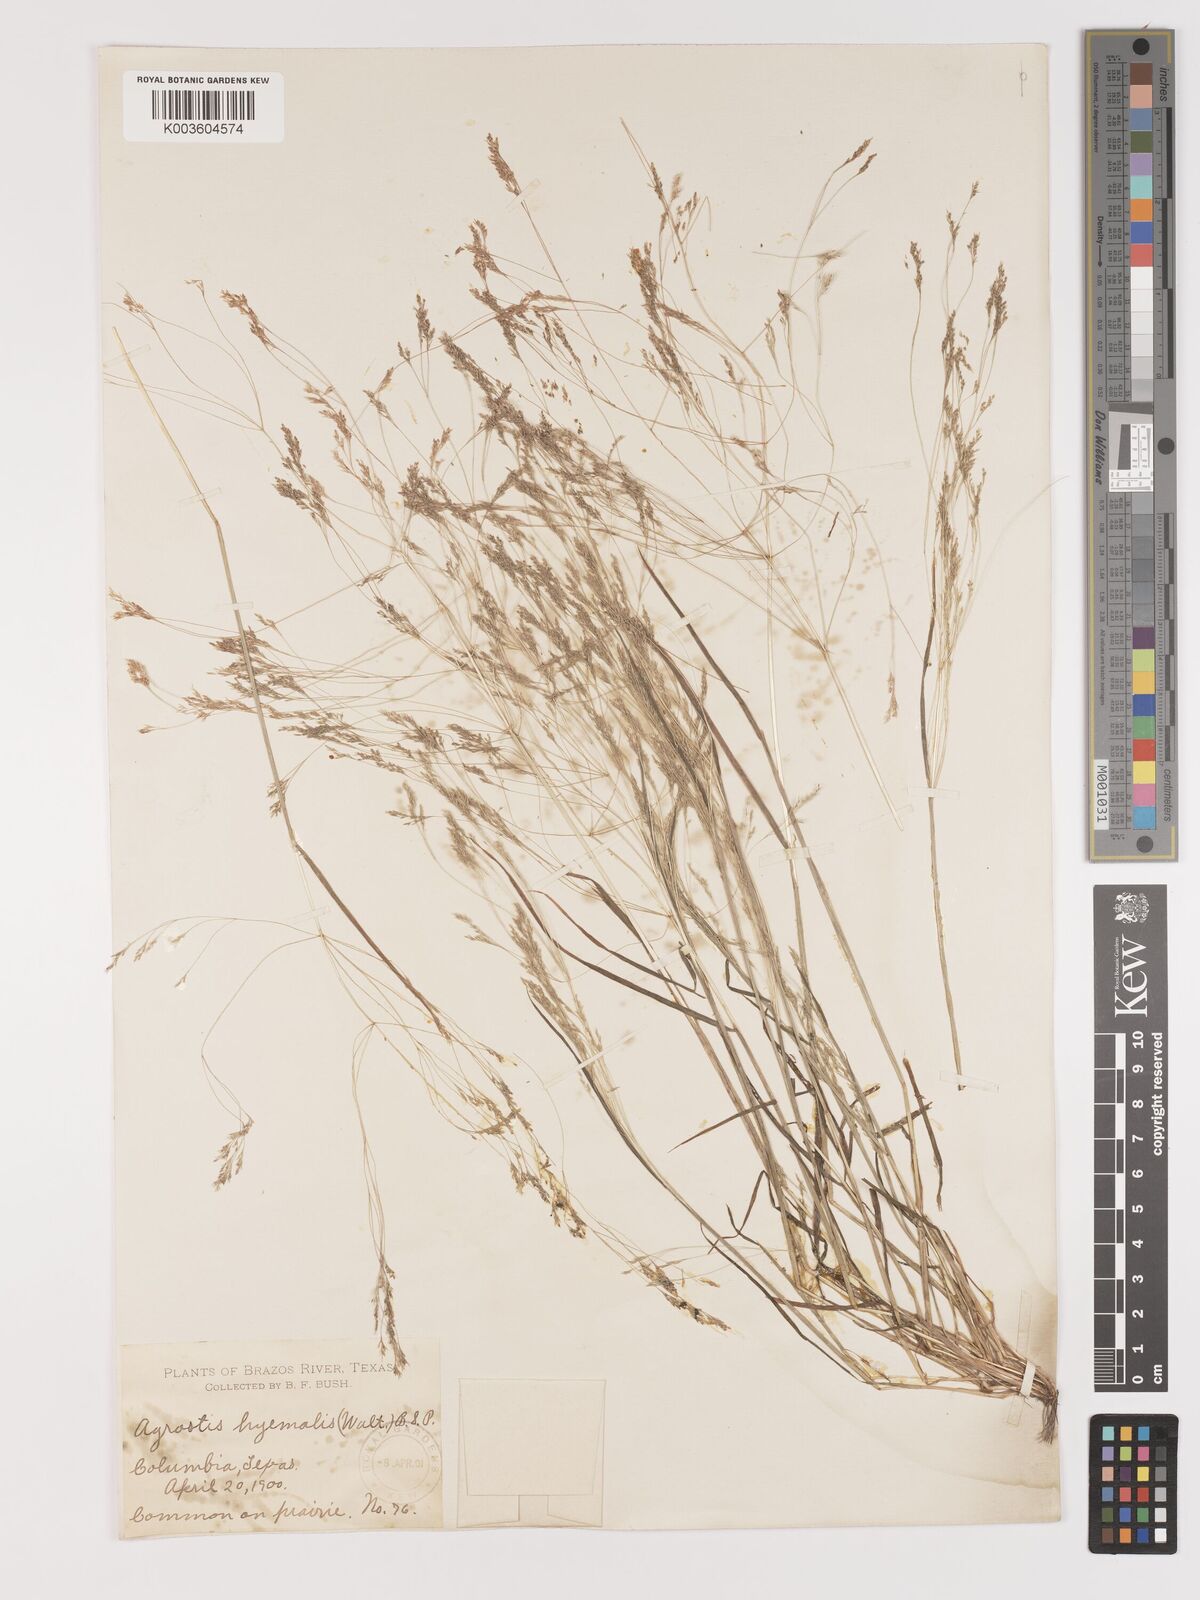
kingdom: Plantae
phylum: Tracheophyta
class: Liliopsida
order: Poales
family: Poaceae
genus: Agrostis
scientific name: Agrostis hyemalis
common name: Small bent
